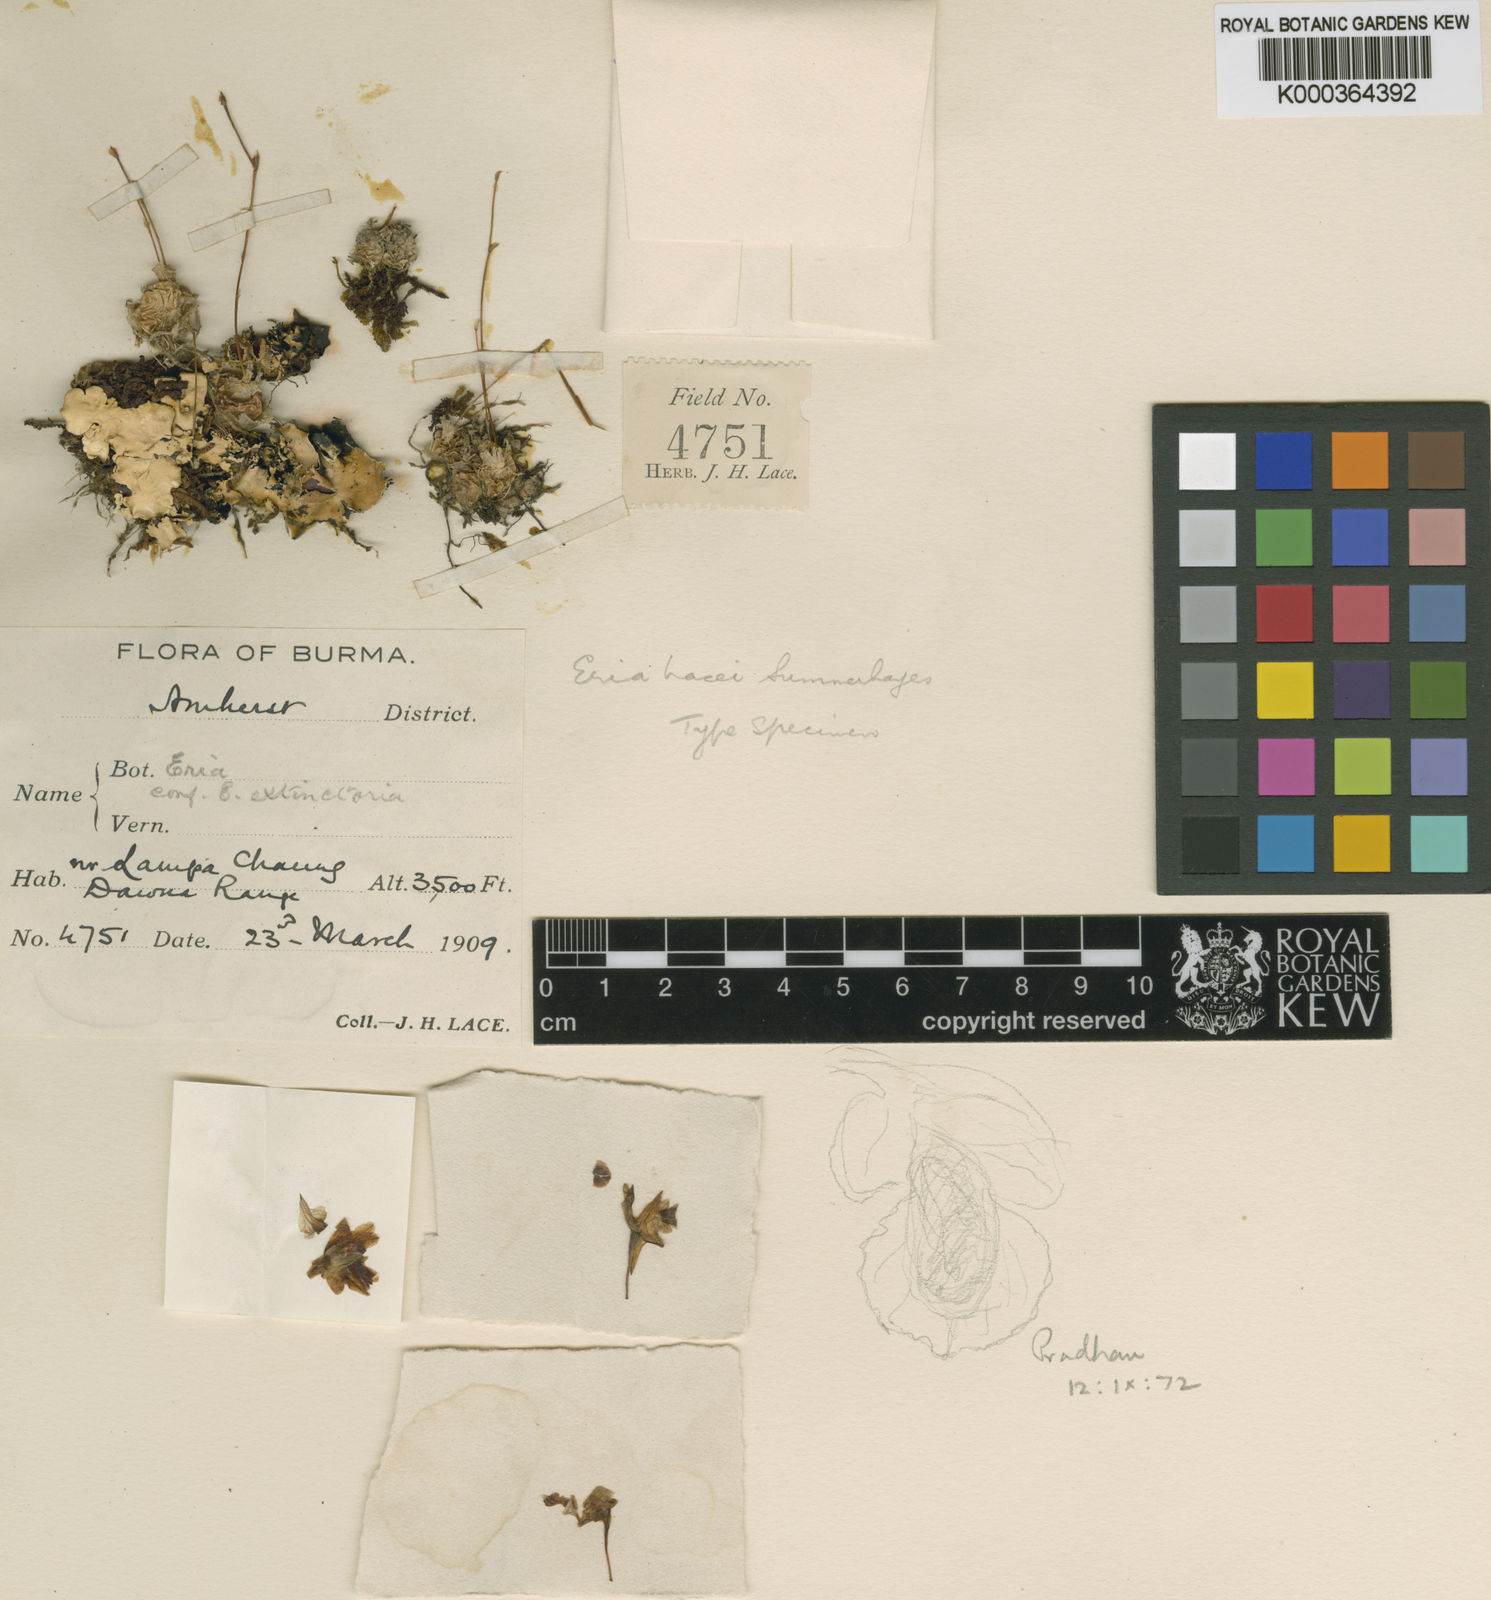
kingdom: Plantae
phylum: Tracheophyta
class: Liliopsida
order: Asparagales
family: Orchidaceae
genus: Porpax
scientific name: Porpax lacei
